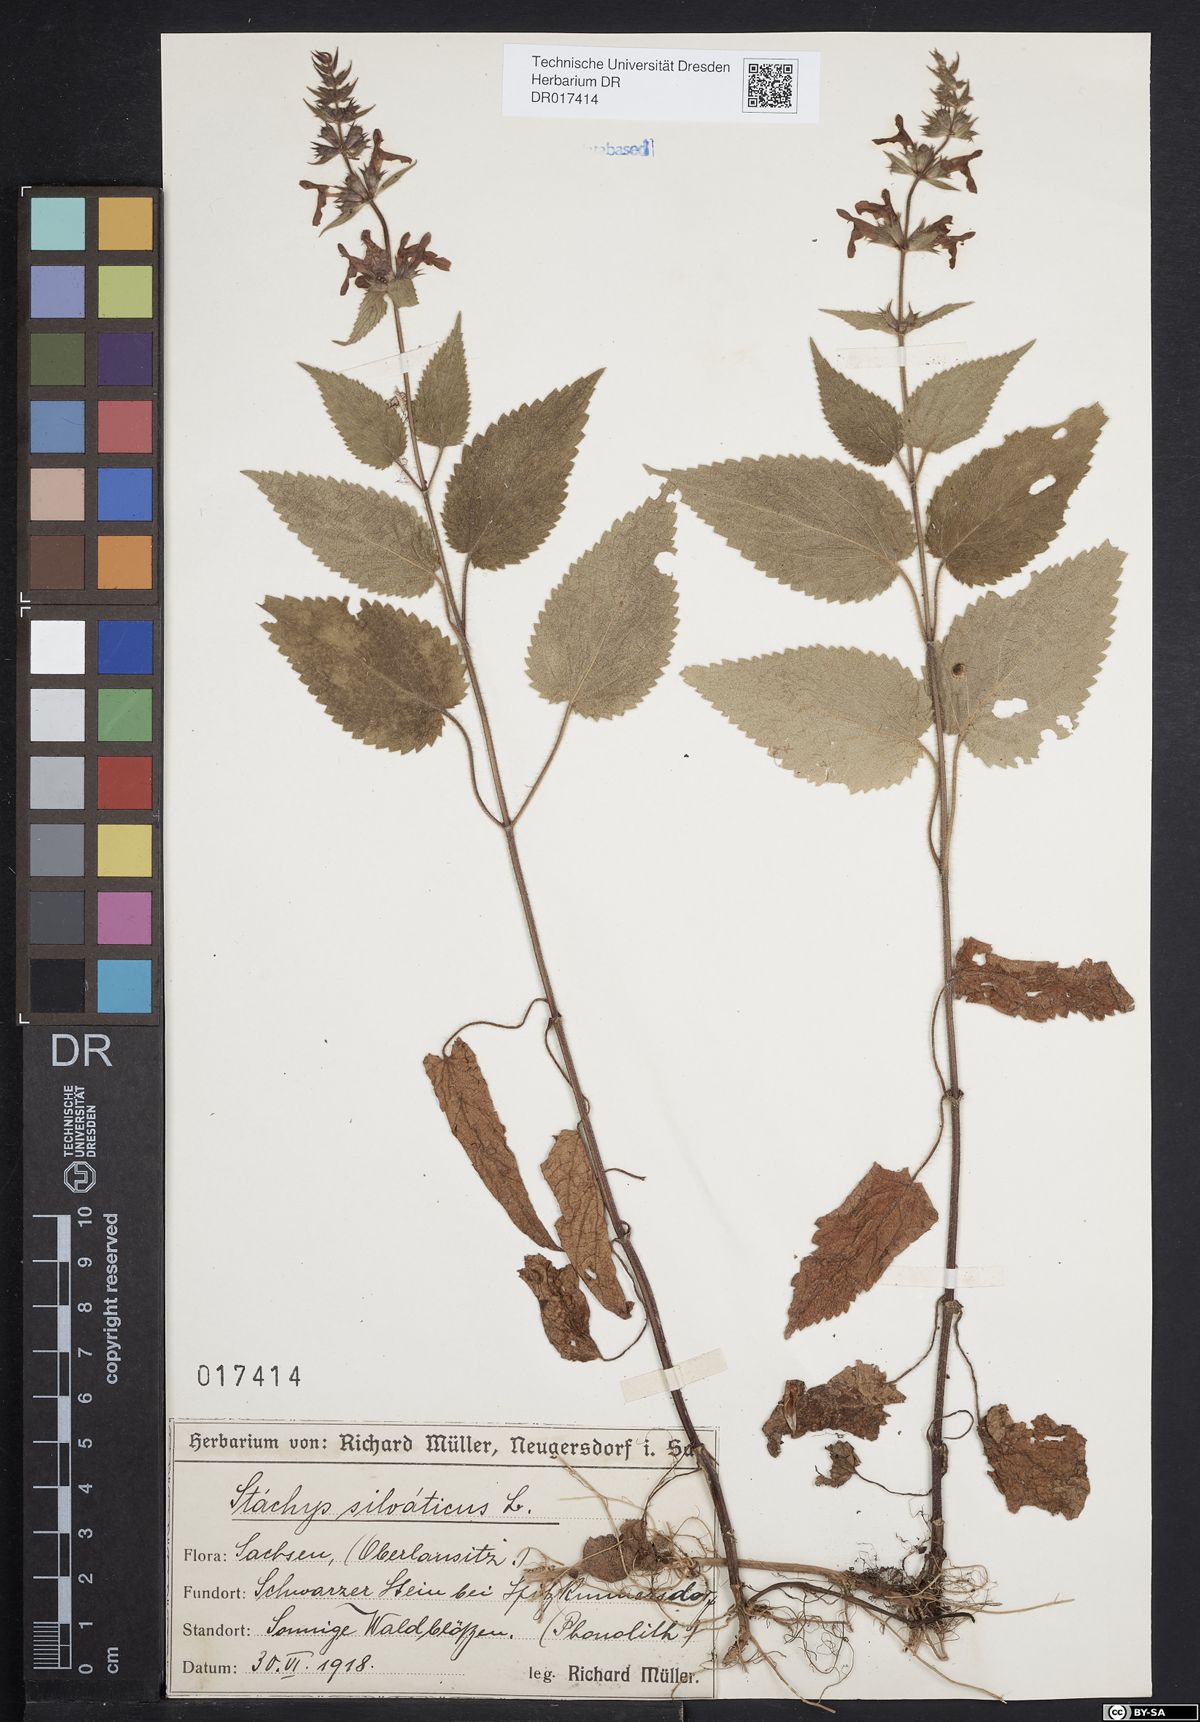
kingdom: Plantae
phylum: Tracheophyta
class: Magnoliopsida
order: Lamiales
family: Lamiaceae
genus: Stachys
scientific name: Stachys sylvatica
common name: Hedge woundwort
